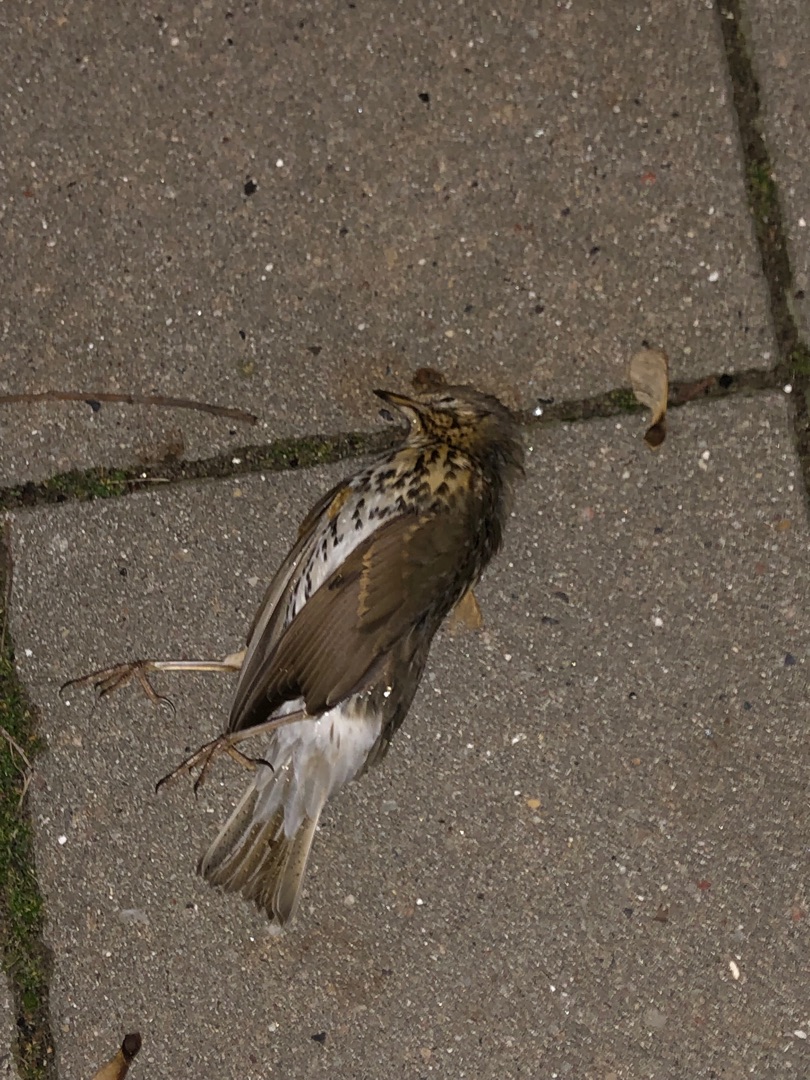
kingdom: Animalia
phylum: Chordata
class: Aves
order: Passeriformes
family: Turdidae
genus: Turdus
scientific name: Turdus philomelos
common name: Sangdrossel
